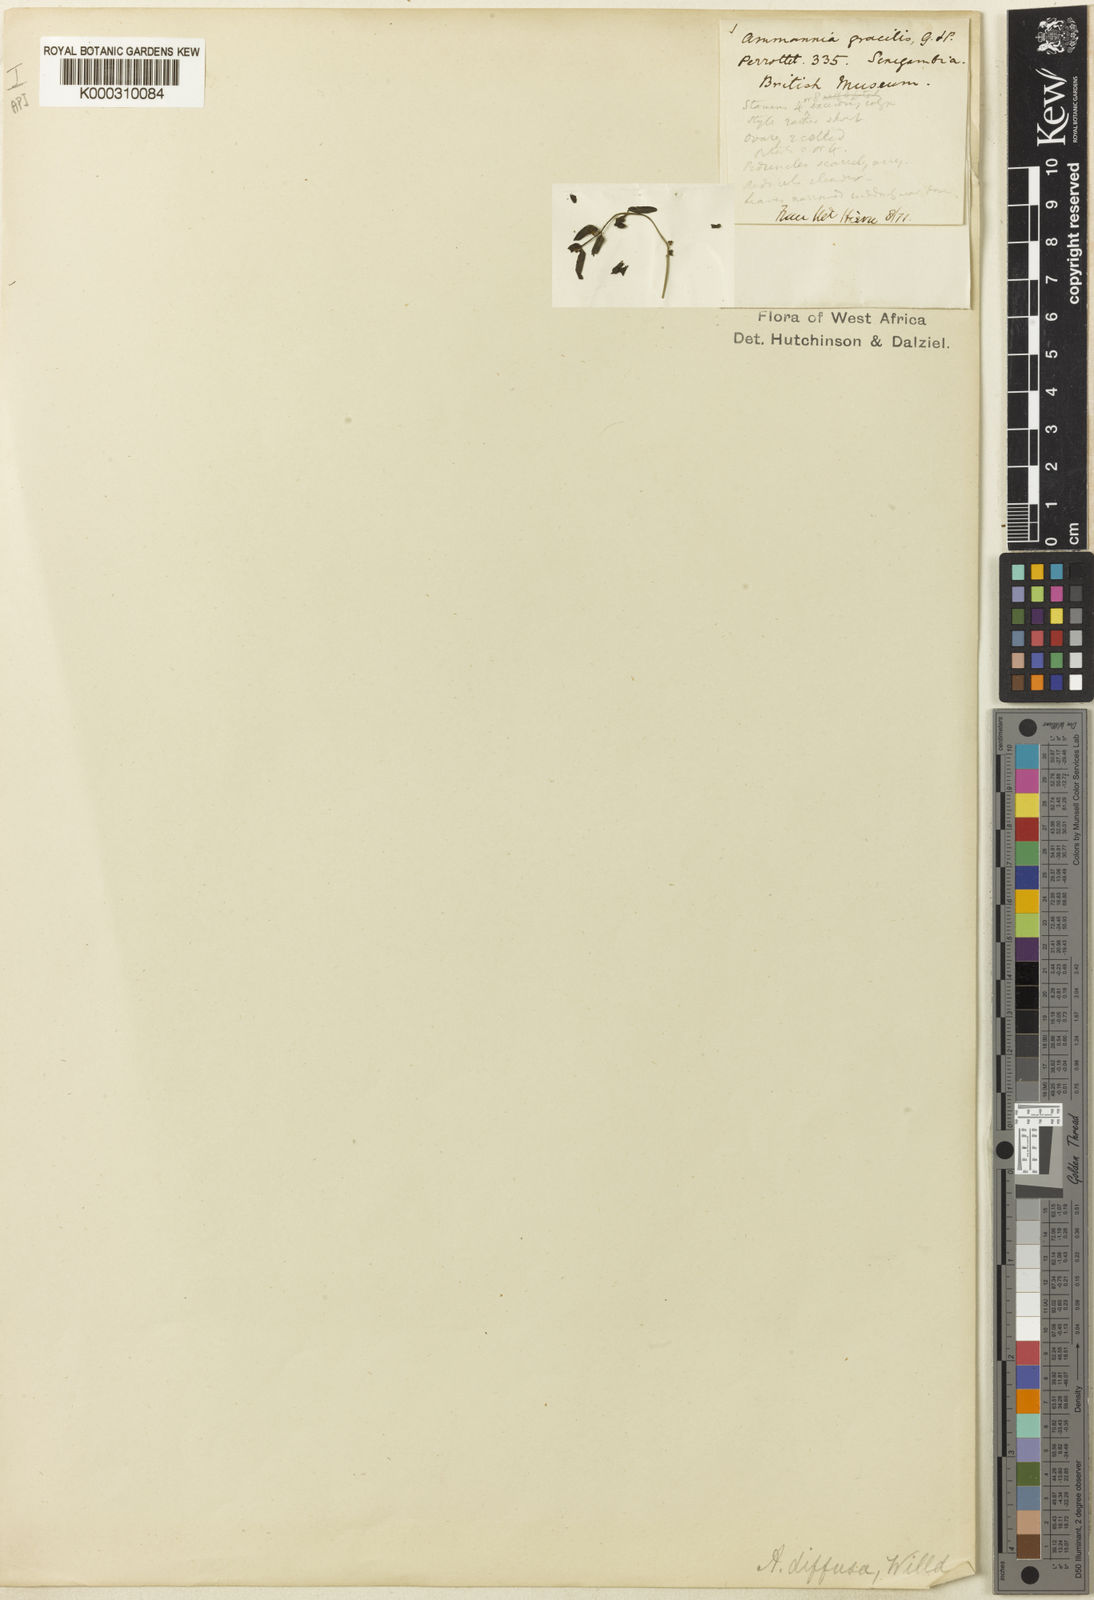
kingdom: Plantae
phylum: Tracheophyta
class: Magnoliopsida
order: Myrtales
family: Lythraceae
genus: Ammannia
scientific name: Ammannia gracilis
